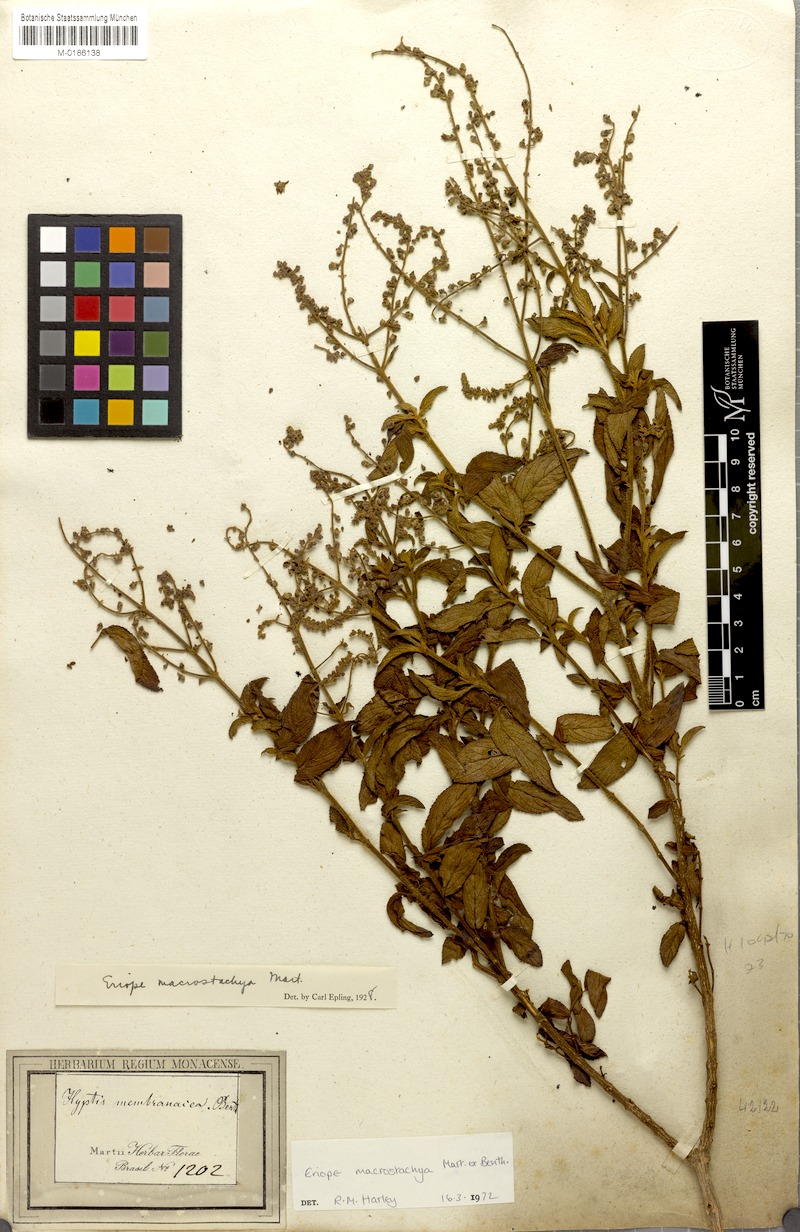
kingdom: Plantae
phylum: Tracheophyta
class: Magnoliopsida
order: Lamiales
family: Lamiaceae
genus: Eriope
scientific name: Eriope macrostachya
